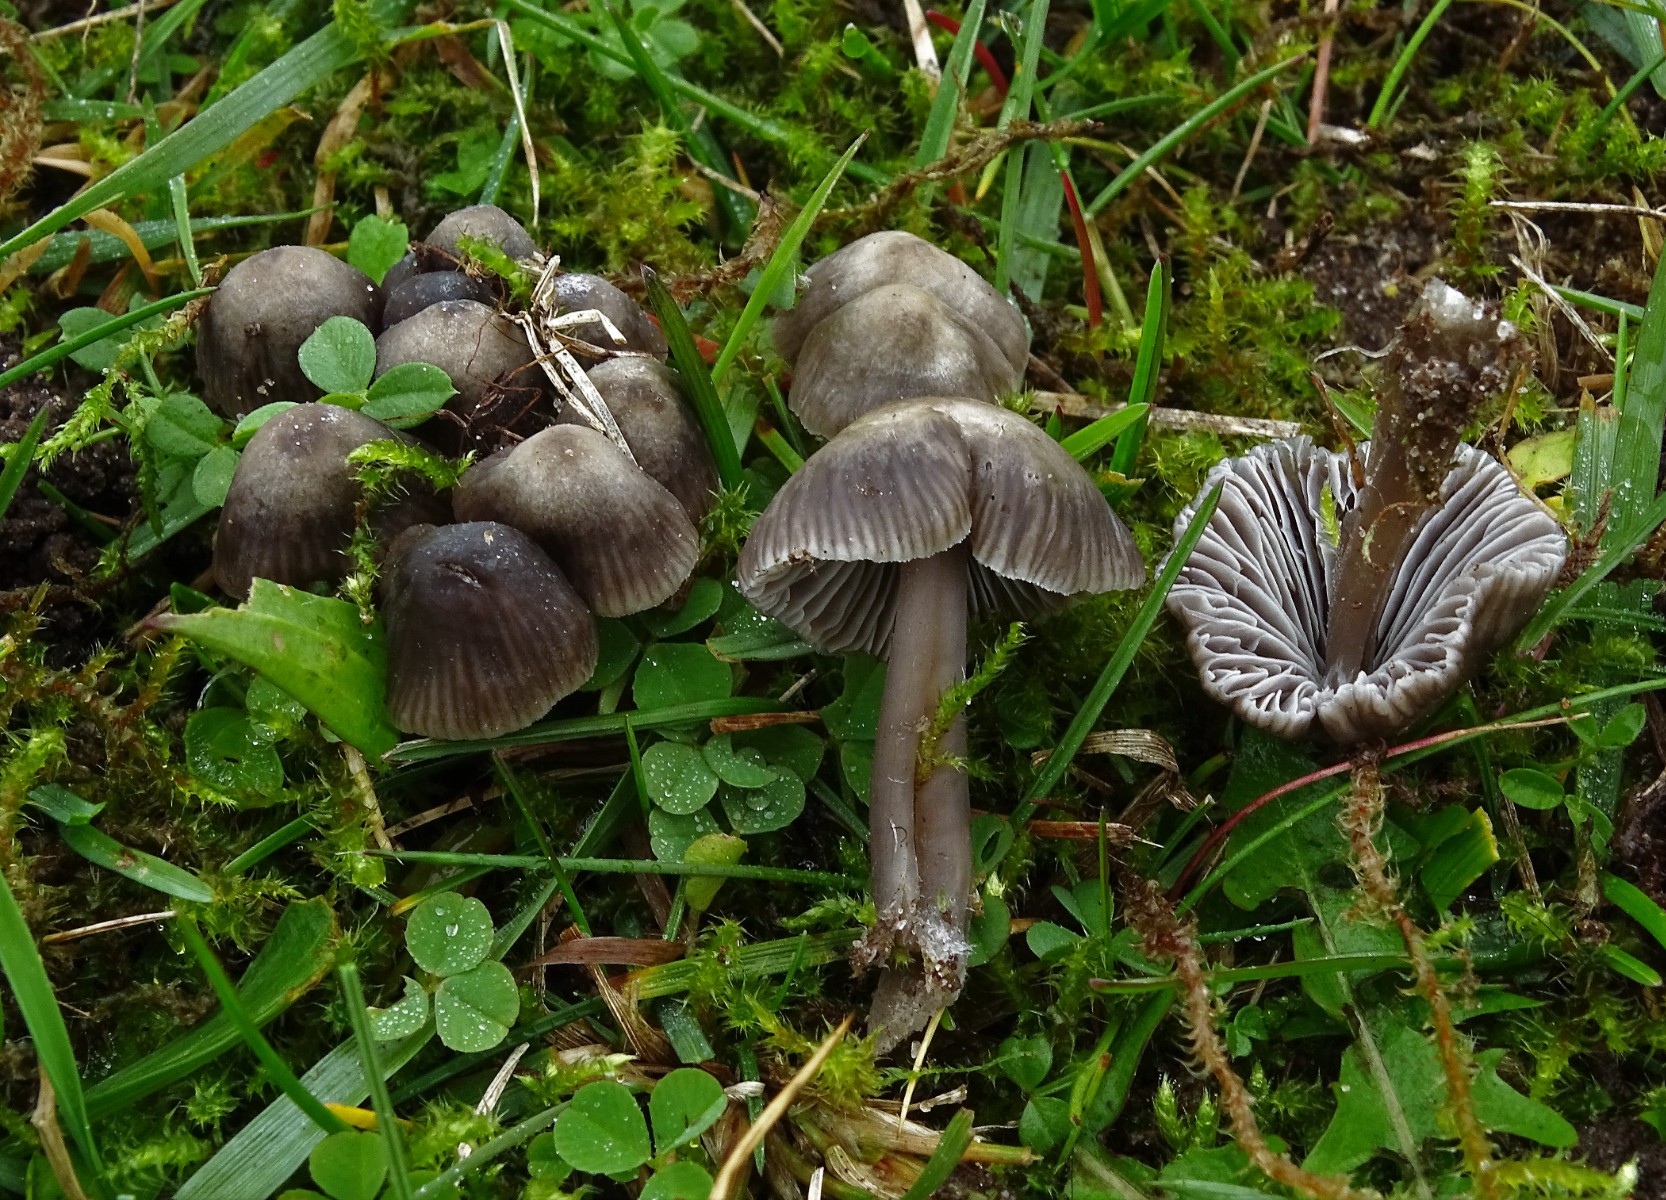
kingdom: Fungi
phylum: Basidiomycota
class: Agaricomycetes
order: Agaricales
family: Mycenaceae
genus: Mycena
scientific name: Mycena leptocephala
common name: klor-huesvamp
